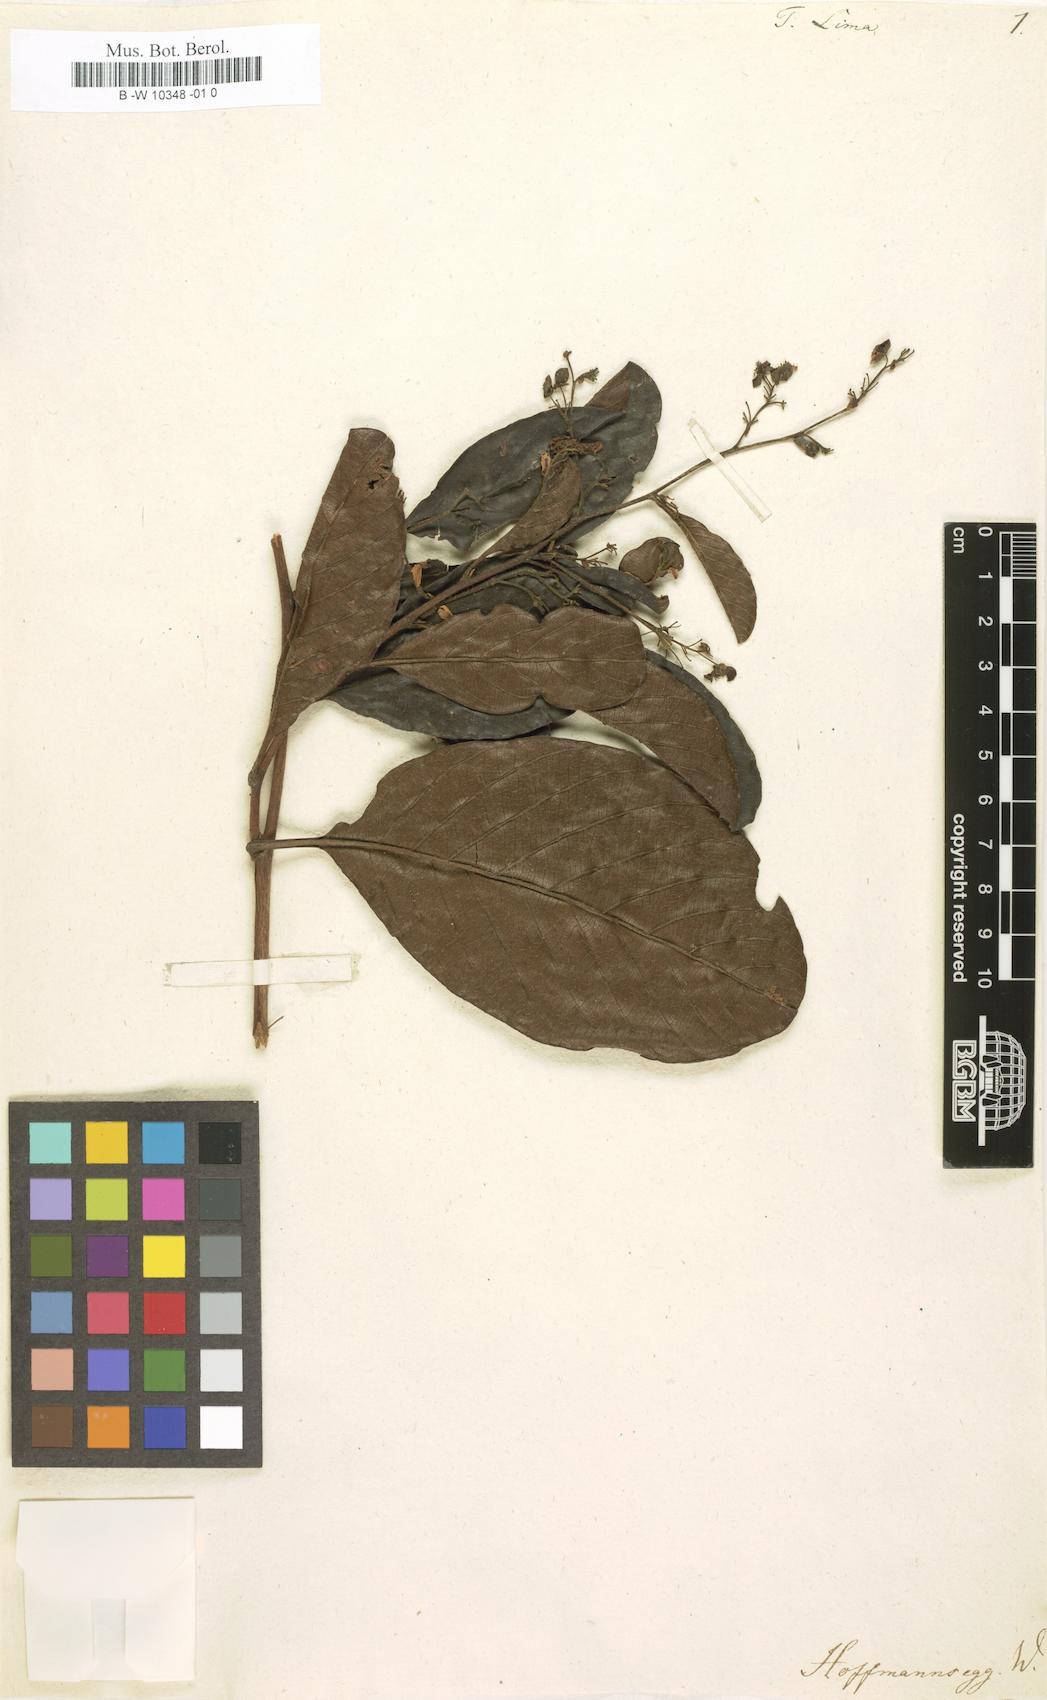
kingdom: Plantae
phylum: Tracheophyta
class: Magnoliopsida
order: Dilleniales
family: Dilleniaceae
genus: Davilla
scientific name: Davilla rugosa
